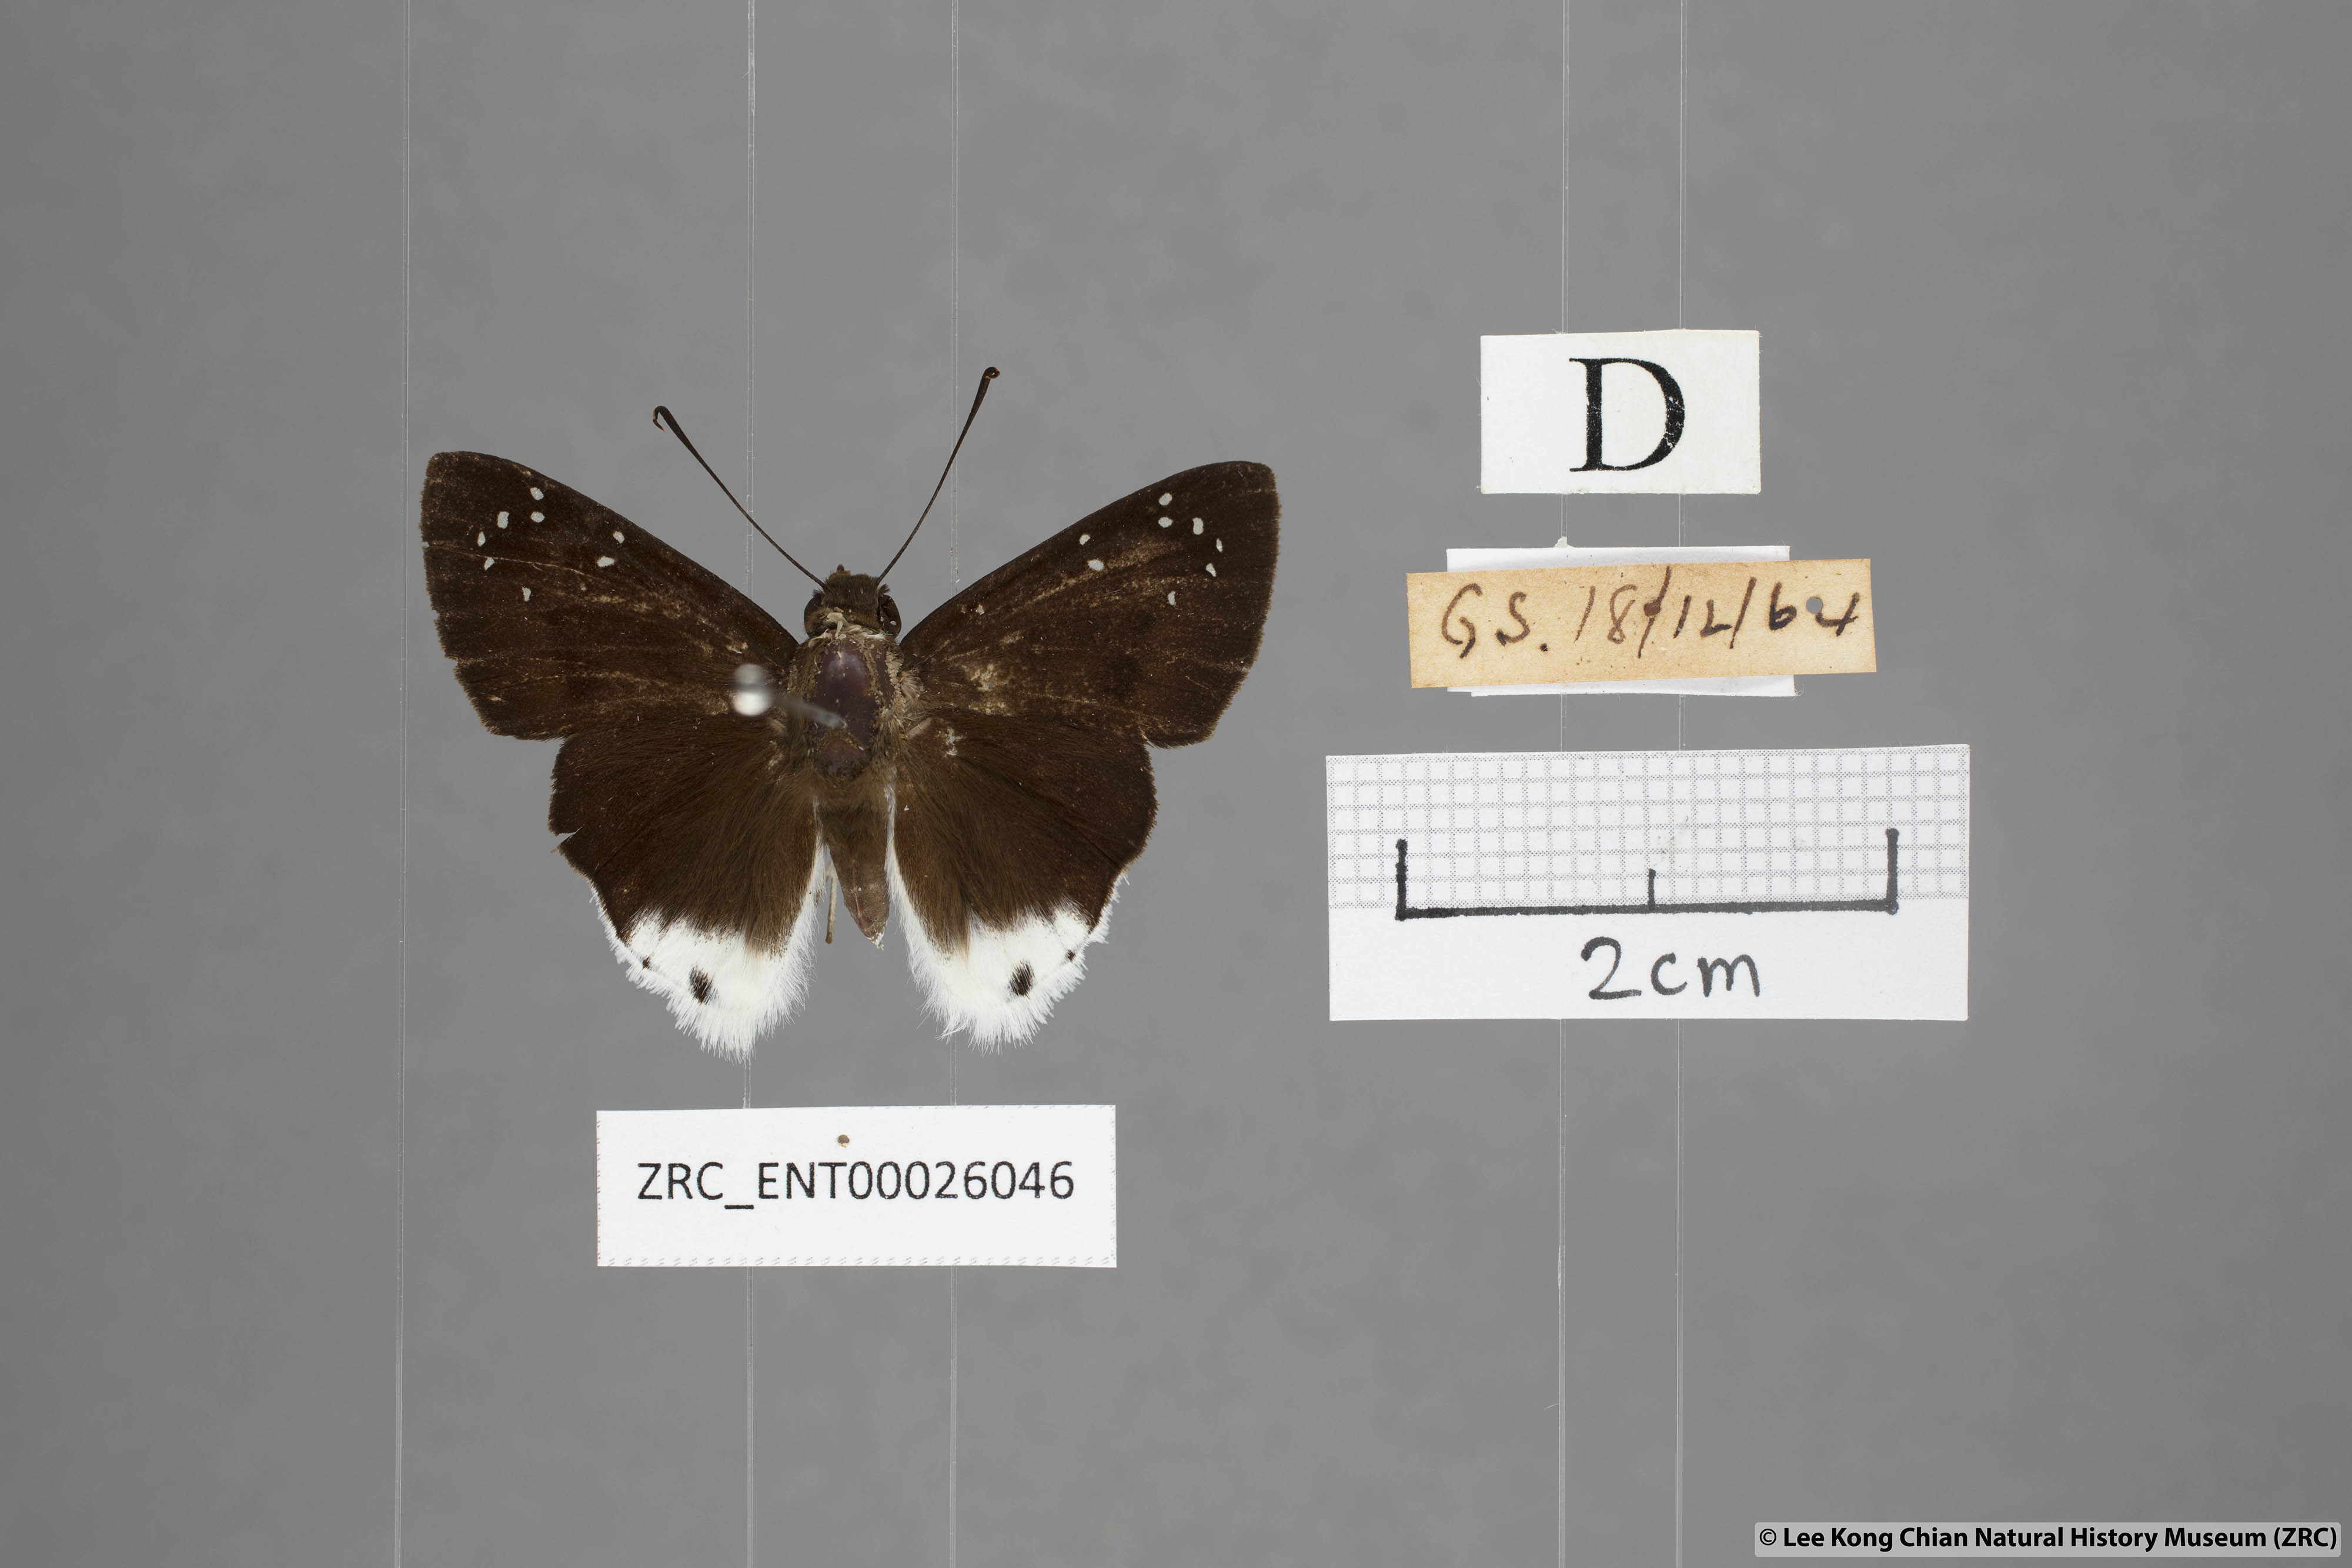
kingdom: Animalia
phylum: Arthropoda
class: Insecta
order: Lepidoptera
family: Hesperiidae
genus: Tagiades
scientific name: Tagiades toba
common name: Different-spotted snow flat
